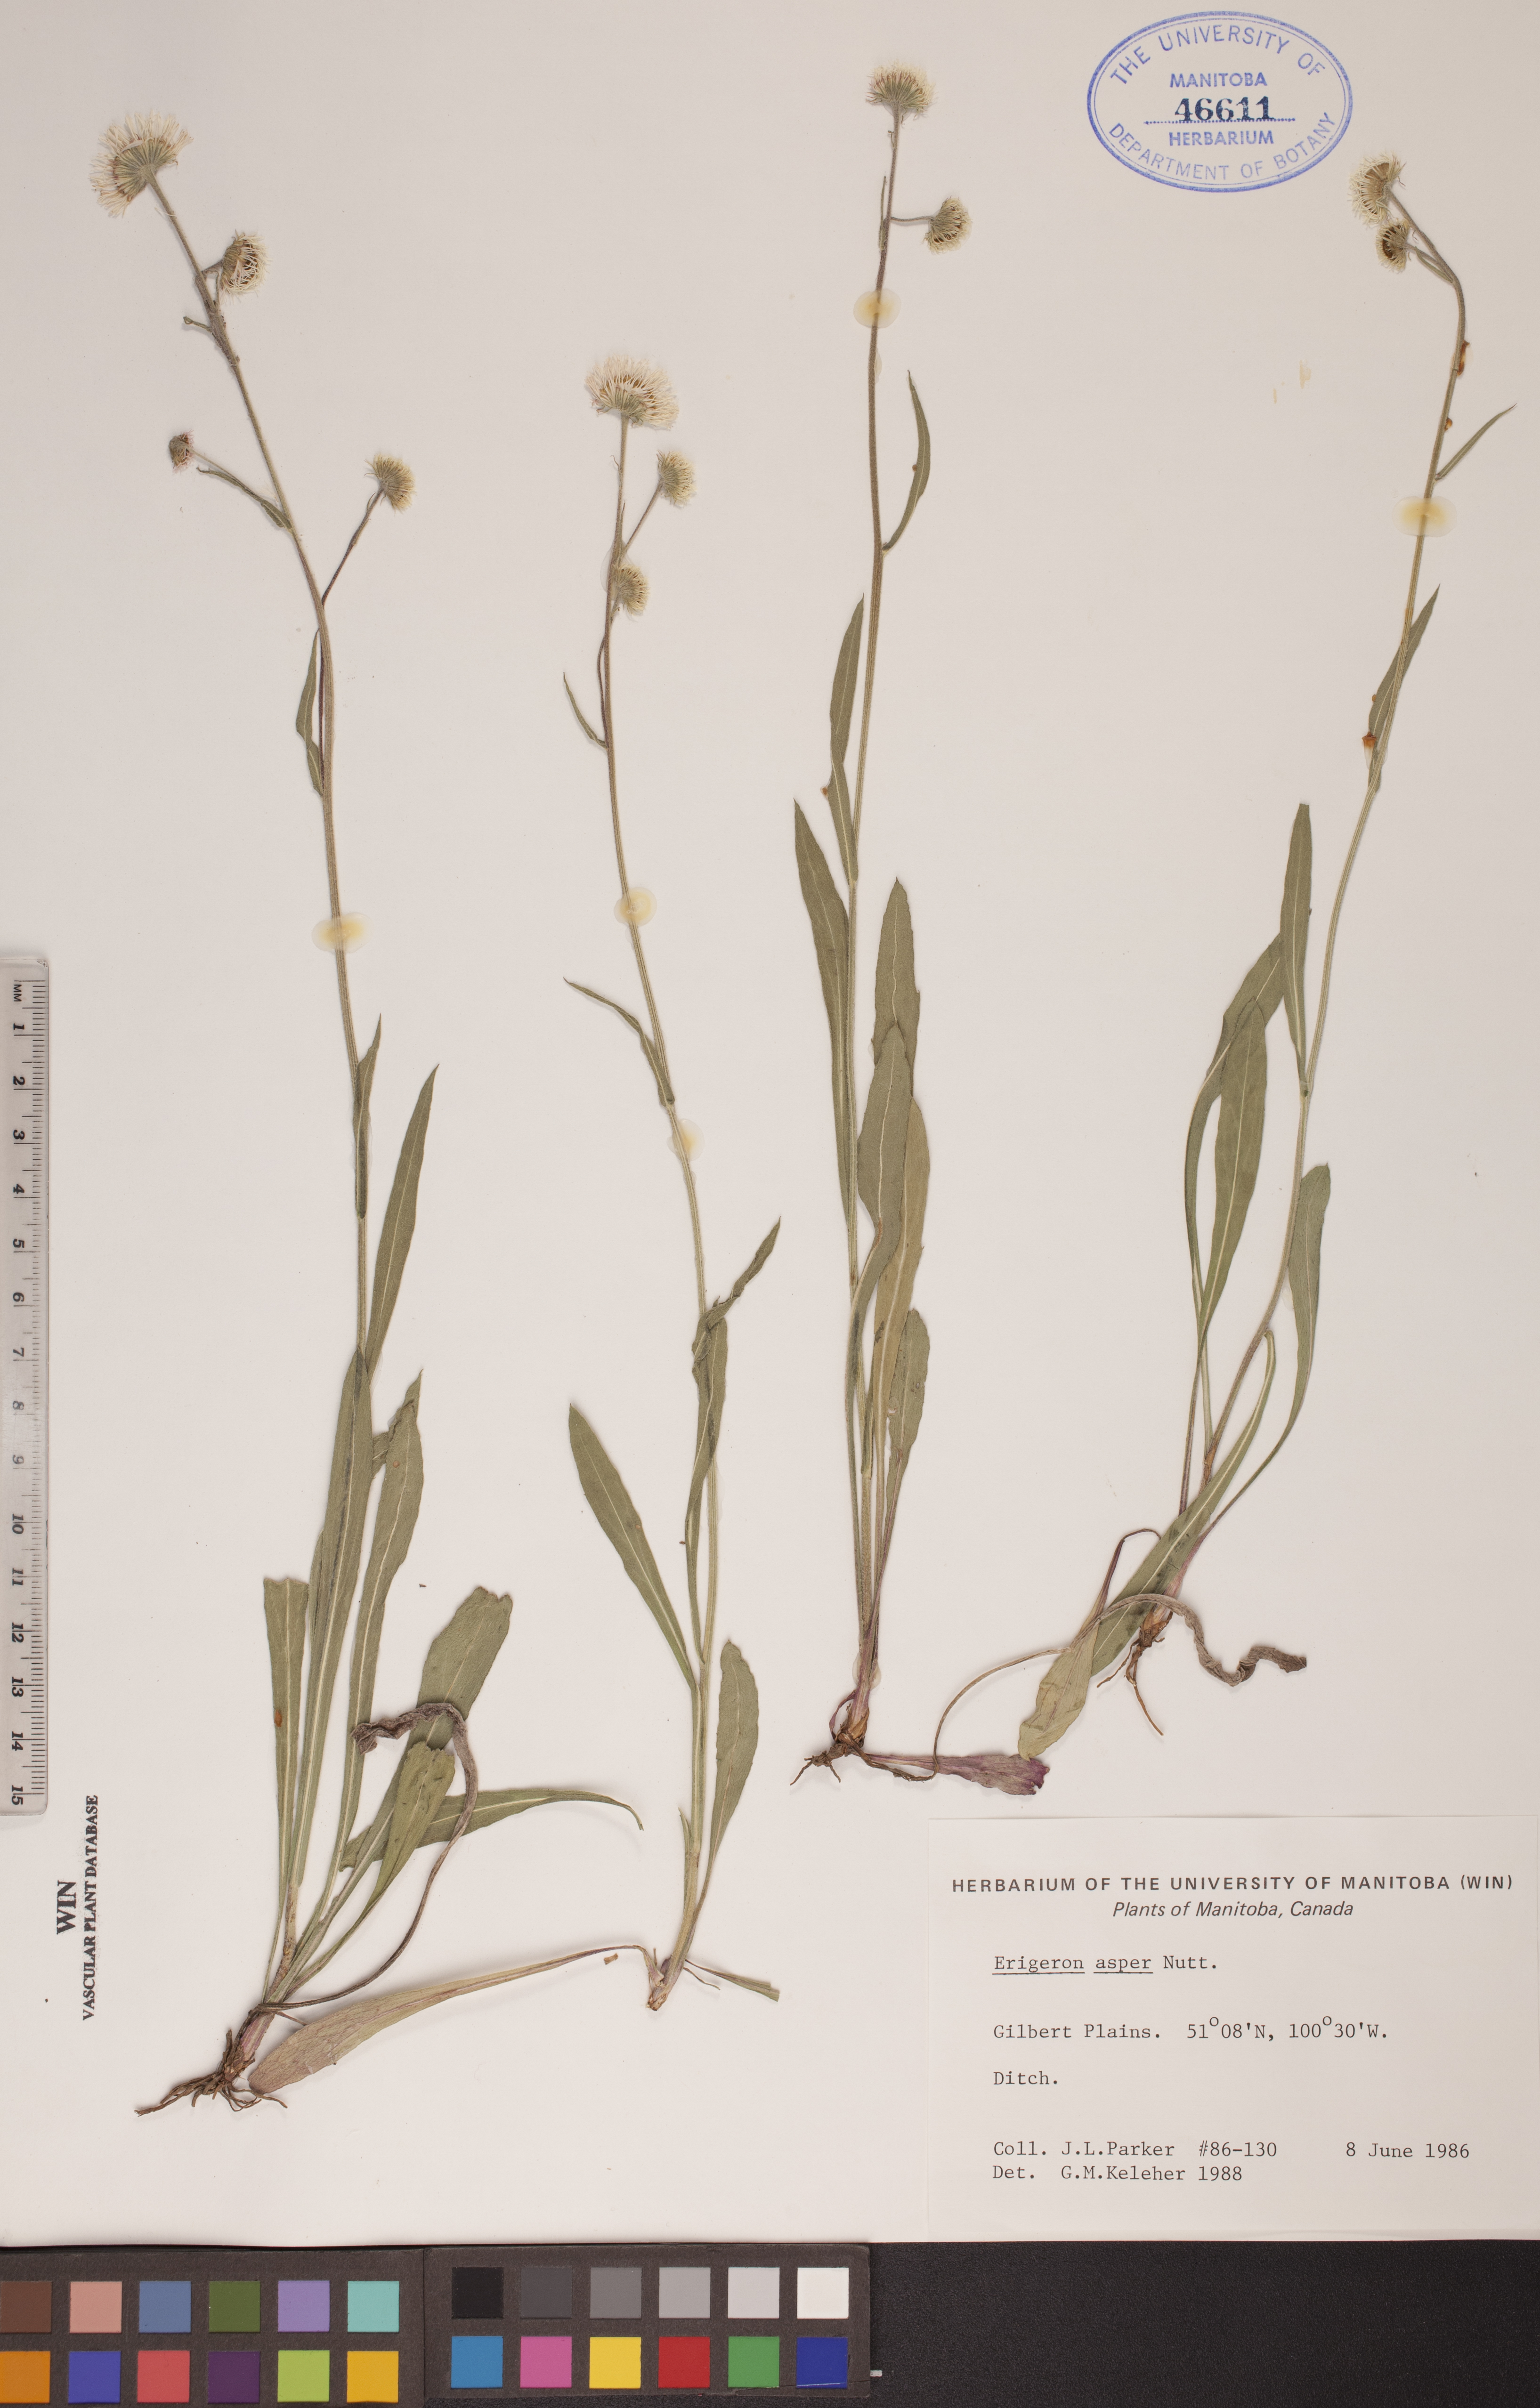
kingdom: Plantae
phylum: Tracheophyta
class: Magnoliopsida
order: Asterales
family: Asteraceae
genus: Erigeron
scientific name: Erigeron glabellus
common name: Smooth fleabane
